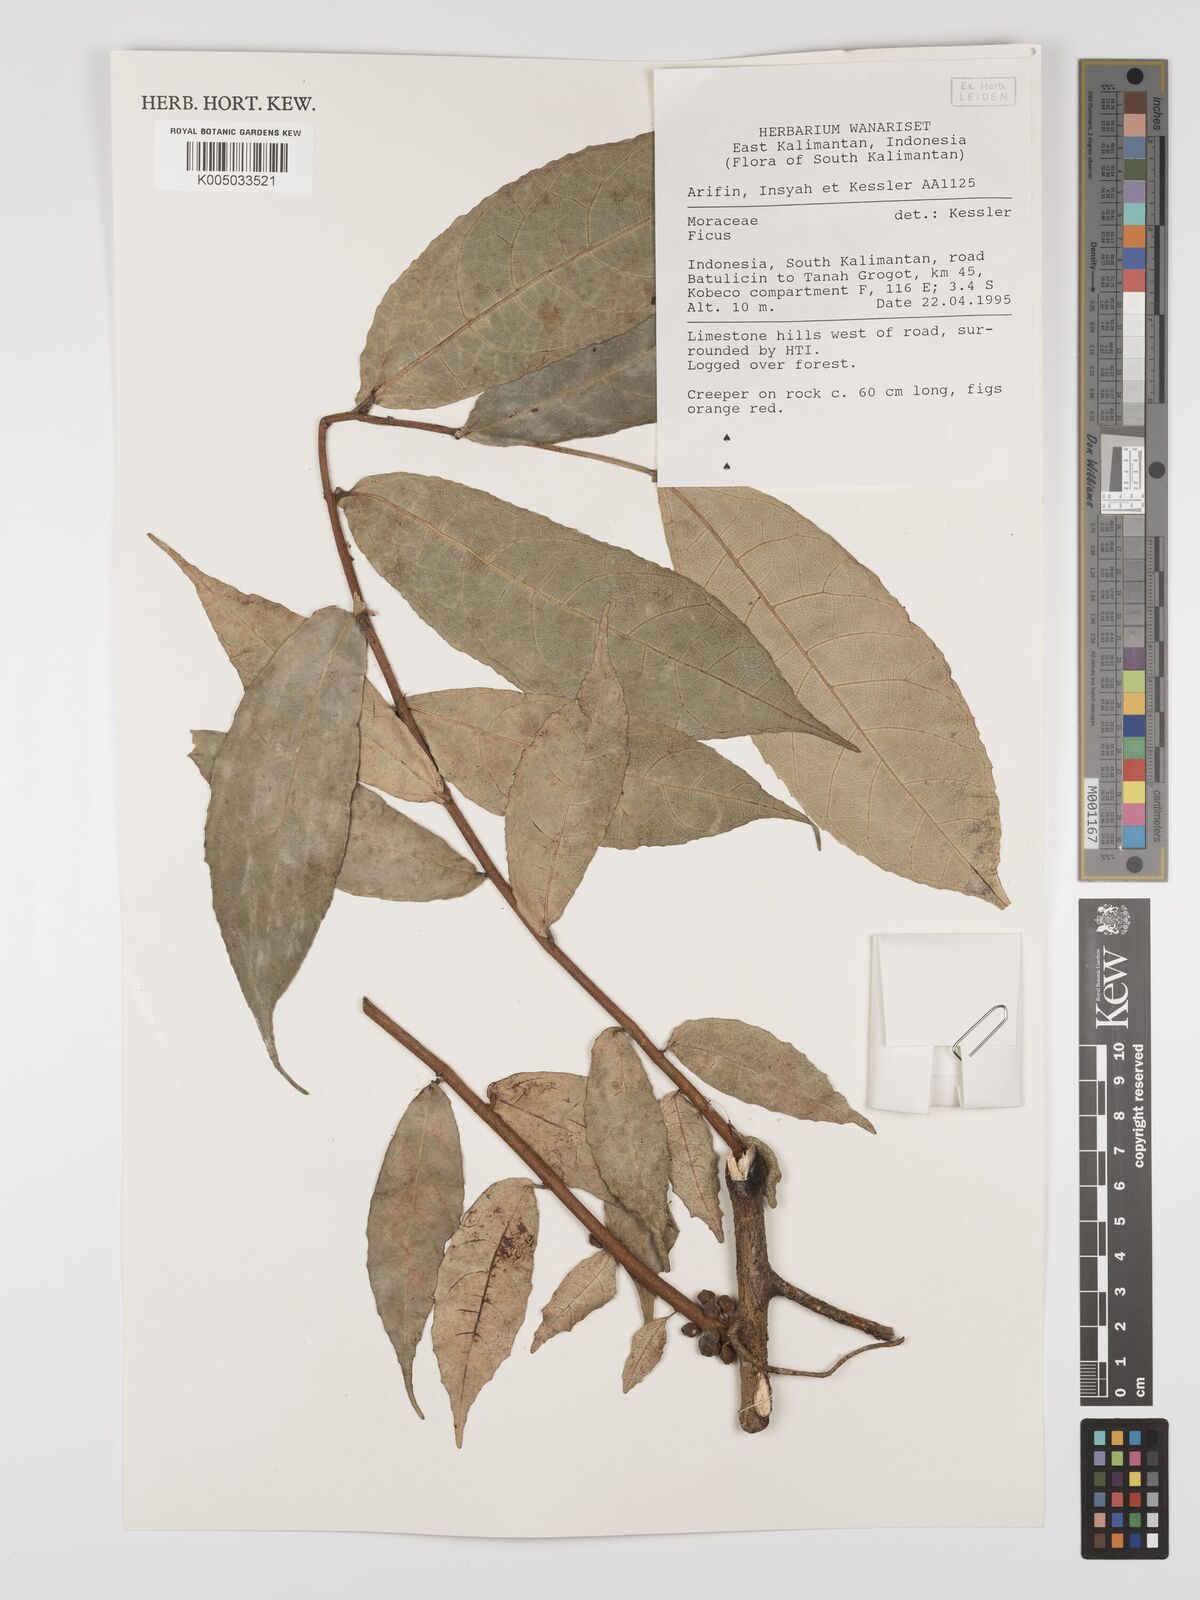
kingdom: Plantae
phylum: Tracheophyta
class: Magnoliopsida
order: Rosales
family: Moraceae
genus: Ficus
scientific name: Ficus
